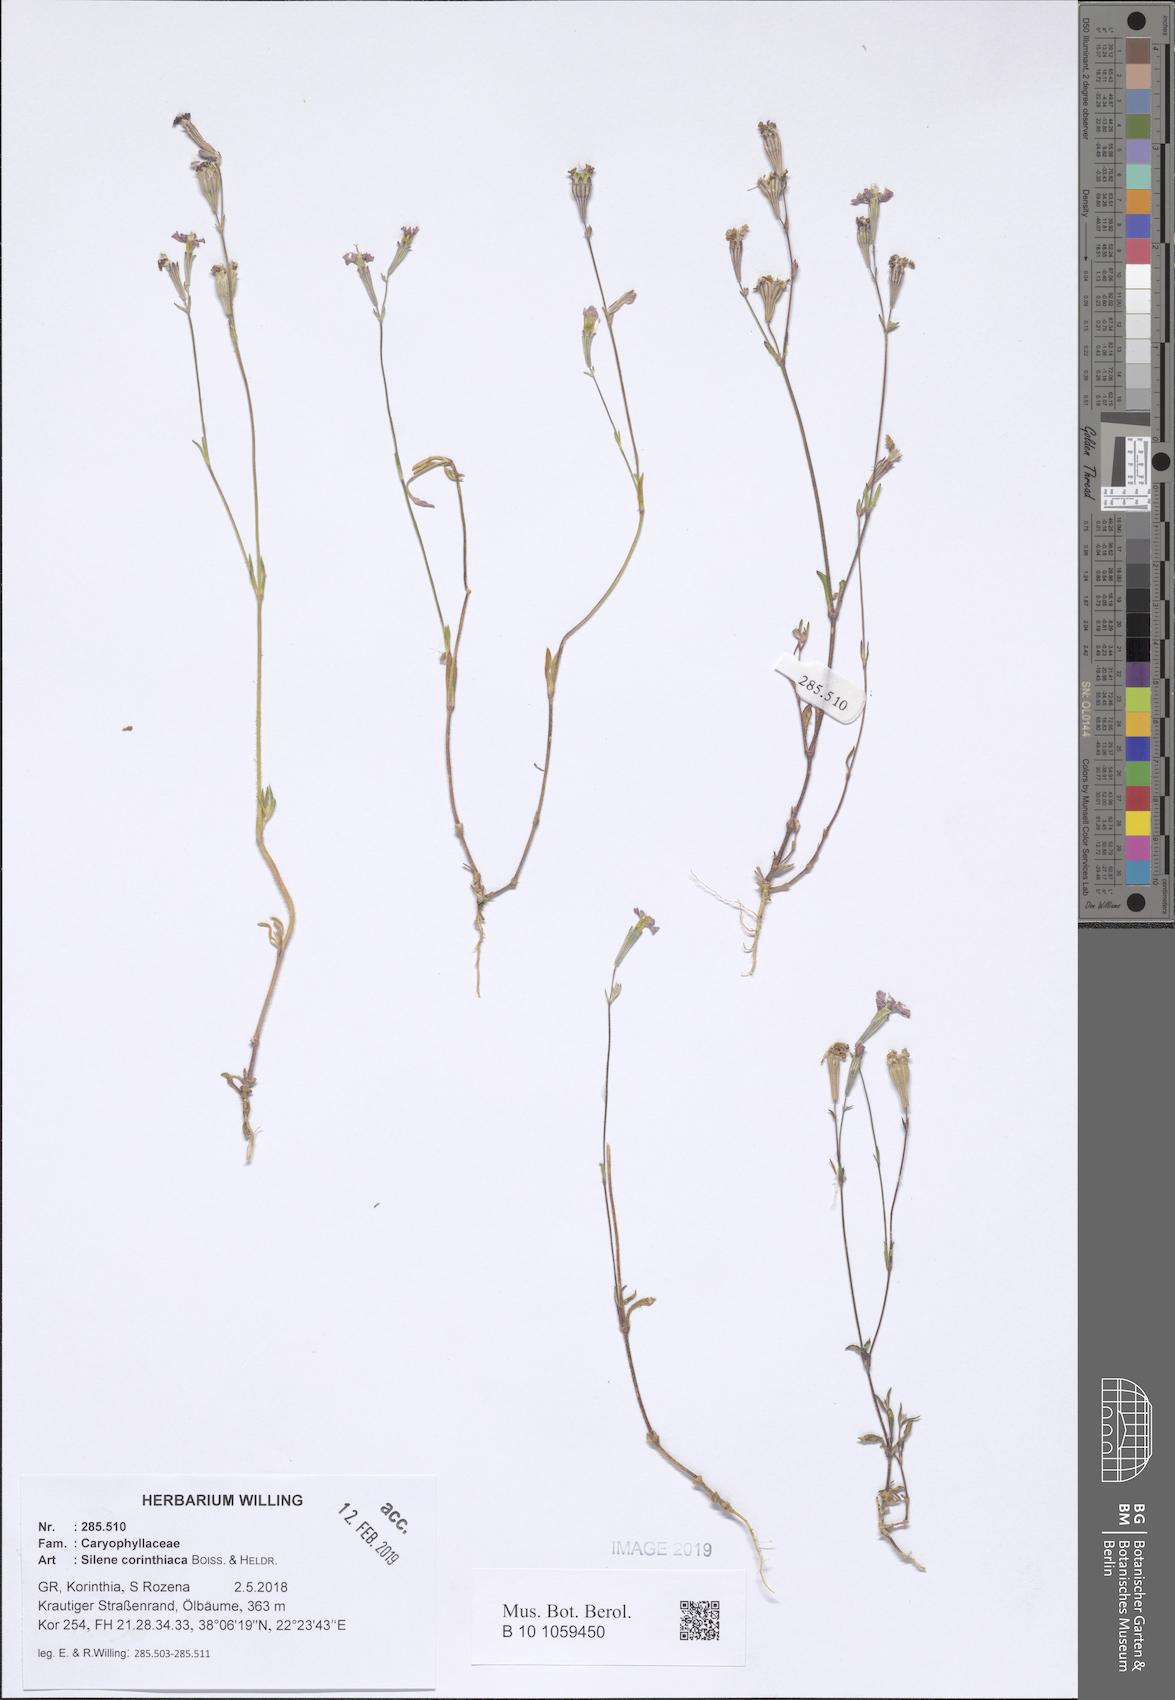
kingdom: Plantae
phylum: Tracheophyta
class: Magnoliopsida
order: Caryophyllales
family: Caryophyllaceae
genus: Silene
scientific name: Silene corinthiaca
